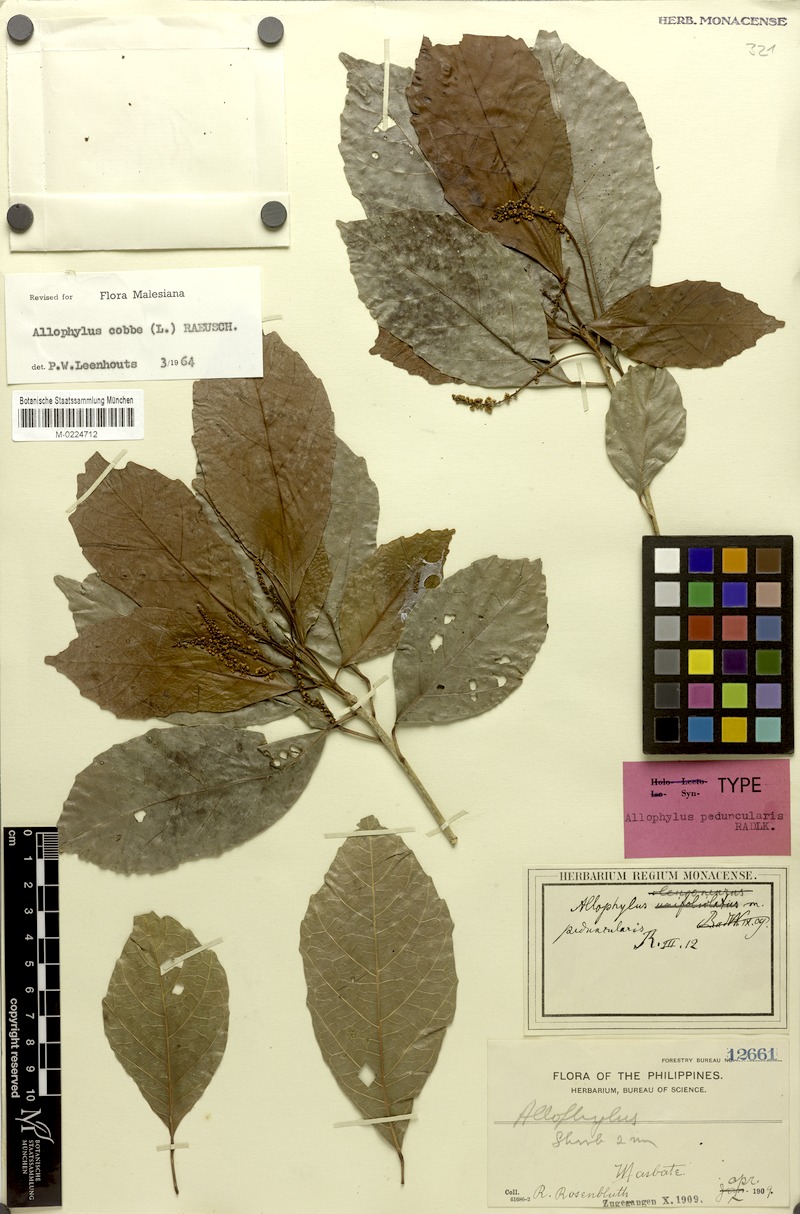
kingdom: Plantae
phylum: Tracheophyta
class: Magnoliopsida
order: Sapindales
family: Sapindaceae
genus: Allophylus
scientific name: Allophylus peduncularis
